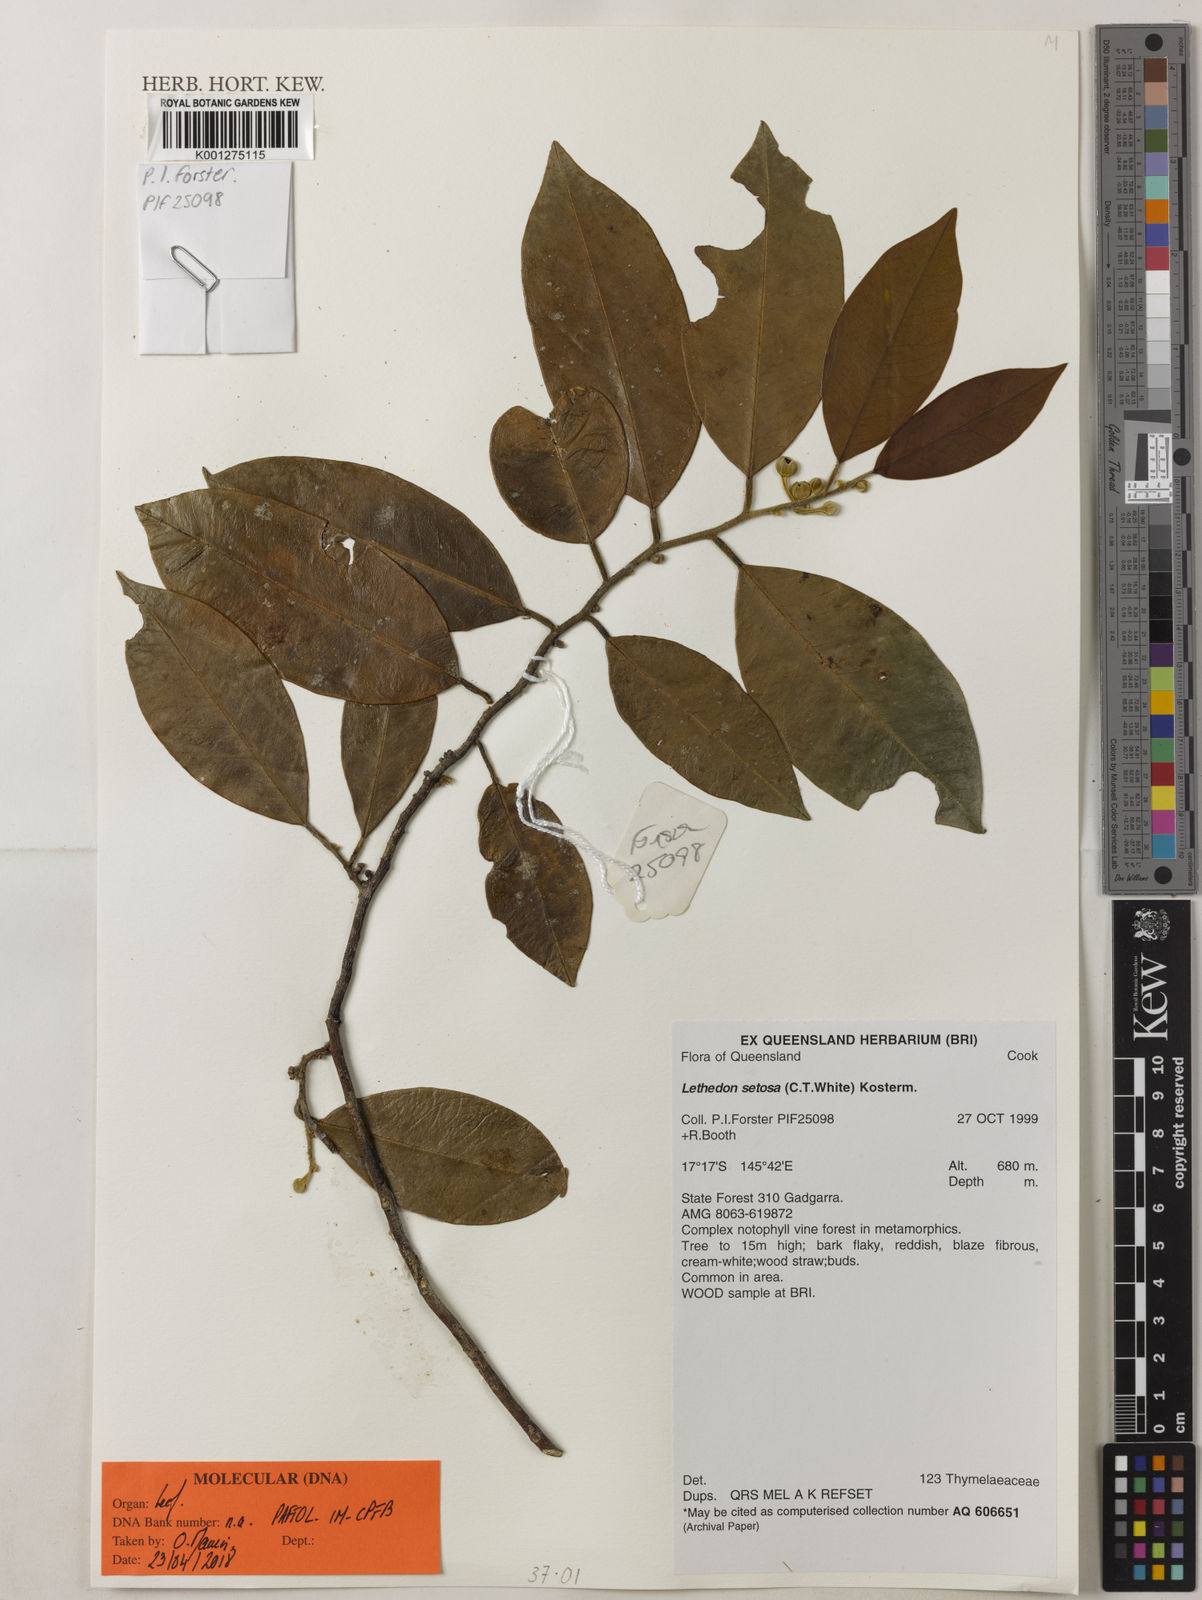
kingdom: Plantae
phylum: Tracheophyta
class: Magnoliopsida
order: Malvales
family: Thymelaeaceae
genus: Lethedon
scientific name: Lethedon setosa
